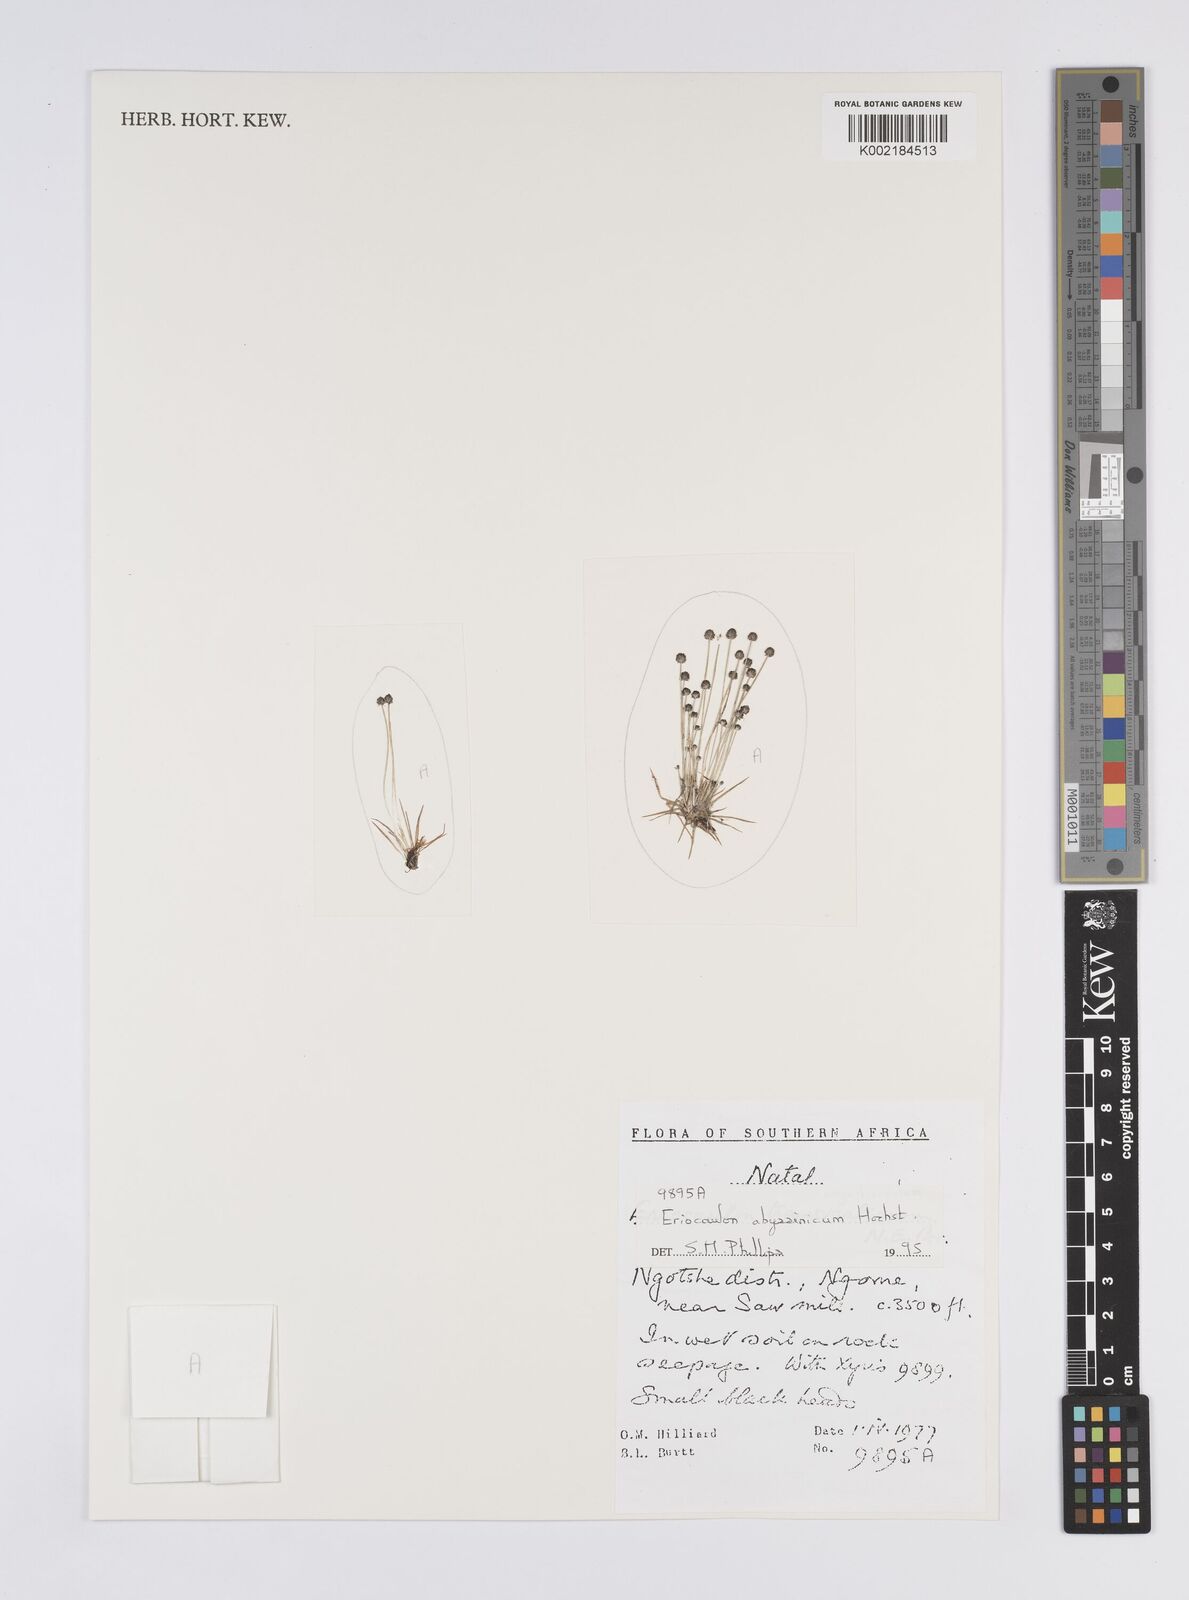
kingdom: Plantae
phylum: Tracheophyta
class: Liliopsida
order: Poales
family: Eriocaulaceae
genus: Eriocaulon
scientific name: Eriocaulon abyssinicum
